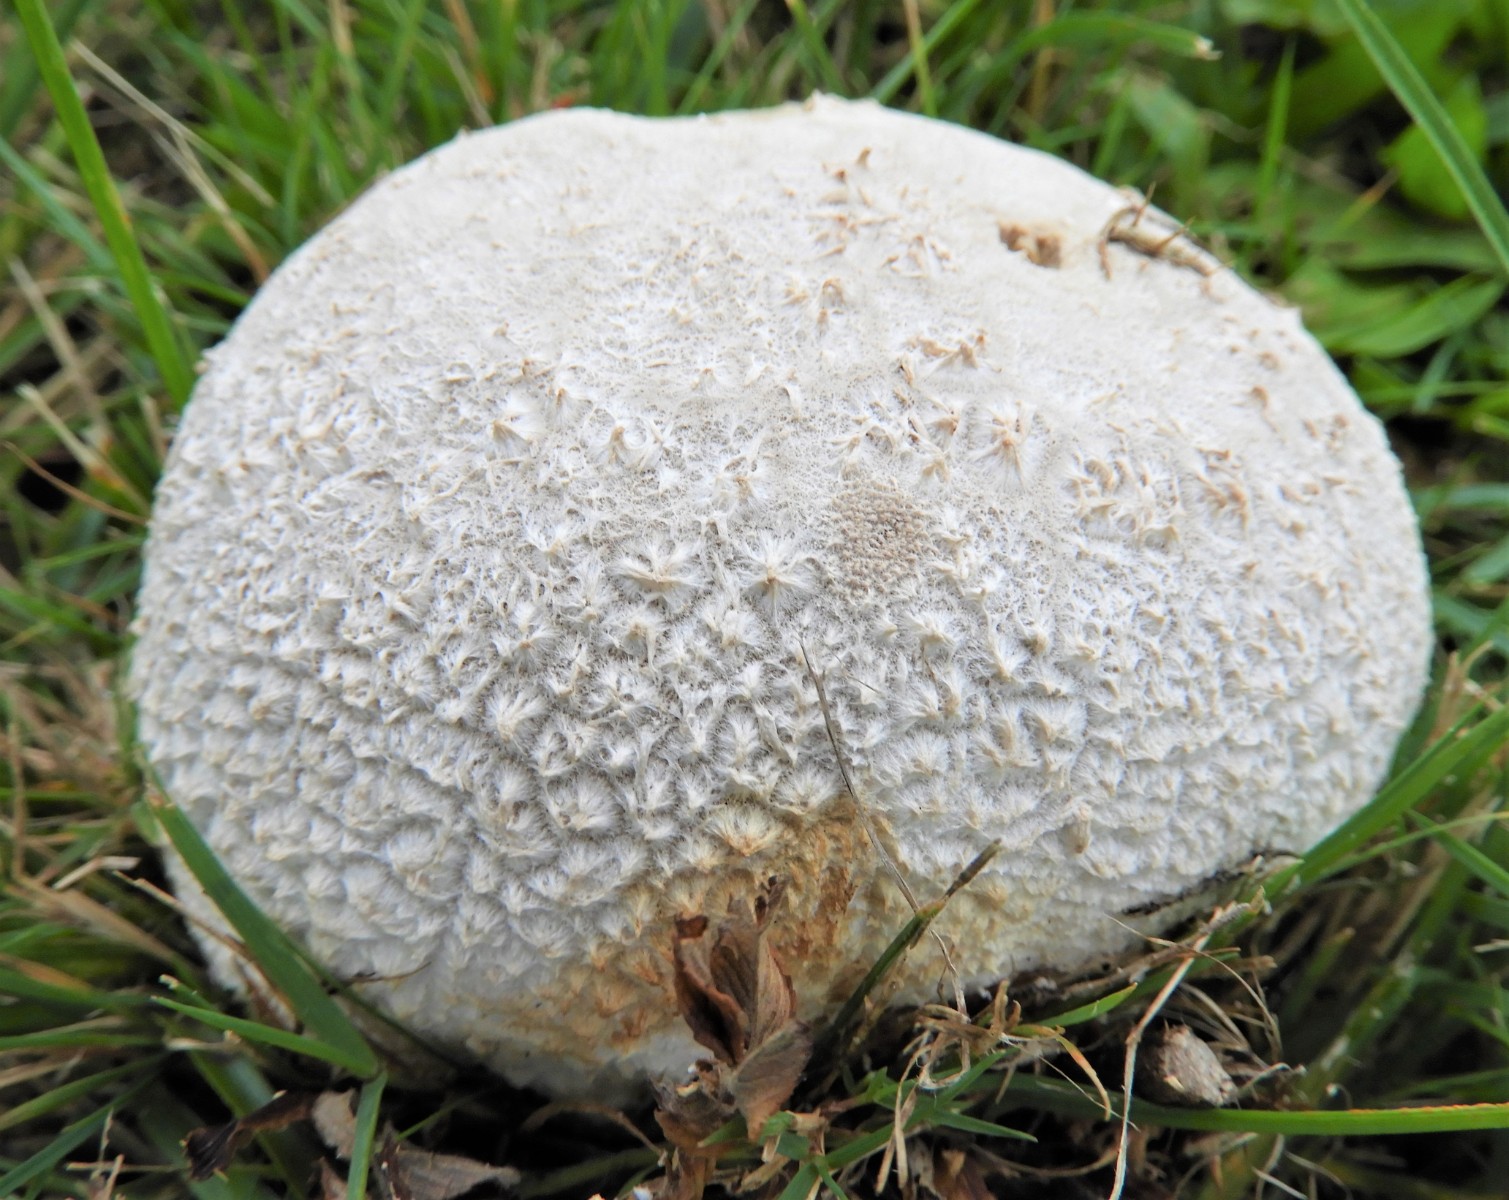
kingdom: Fungi
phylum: Basidiomycota
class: Agaricomycetes
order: Agaricales
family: Lycoperdaceae
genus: Bovistella
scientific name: Bovistella utriformis
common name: skællet støvbold
